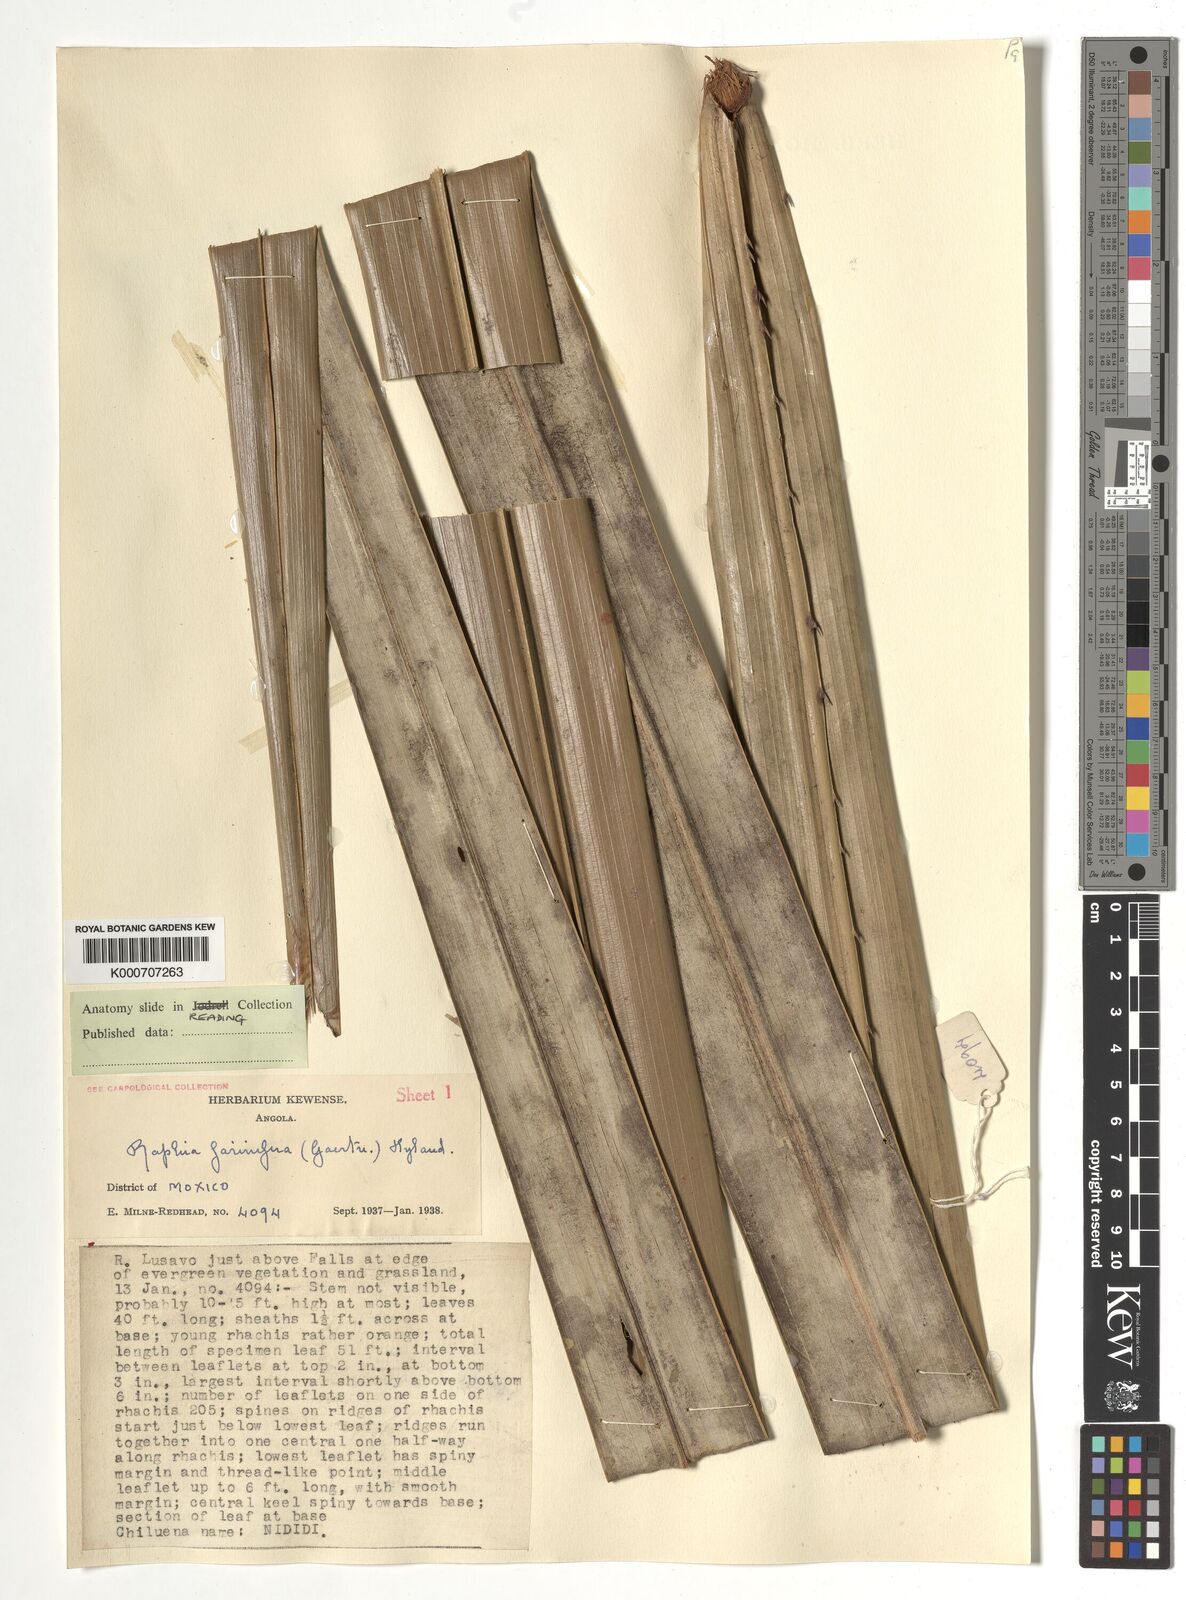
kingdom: Plantae
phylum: Tracheophyta
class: Liliopsida
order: Arecales
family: Arecaceae
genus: Raphia
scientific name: Raphia farinifera
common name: Raphia palm
